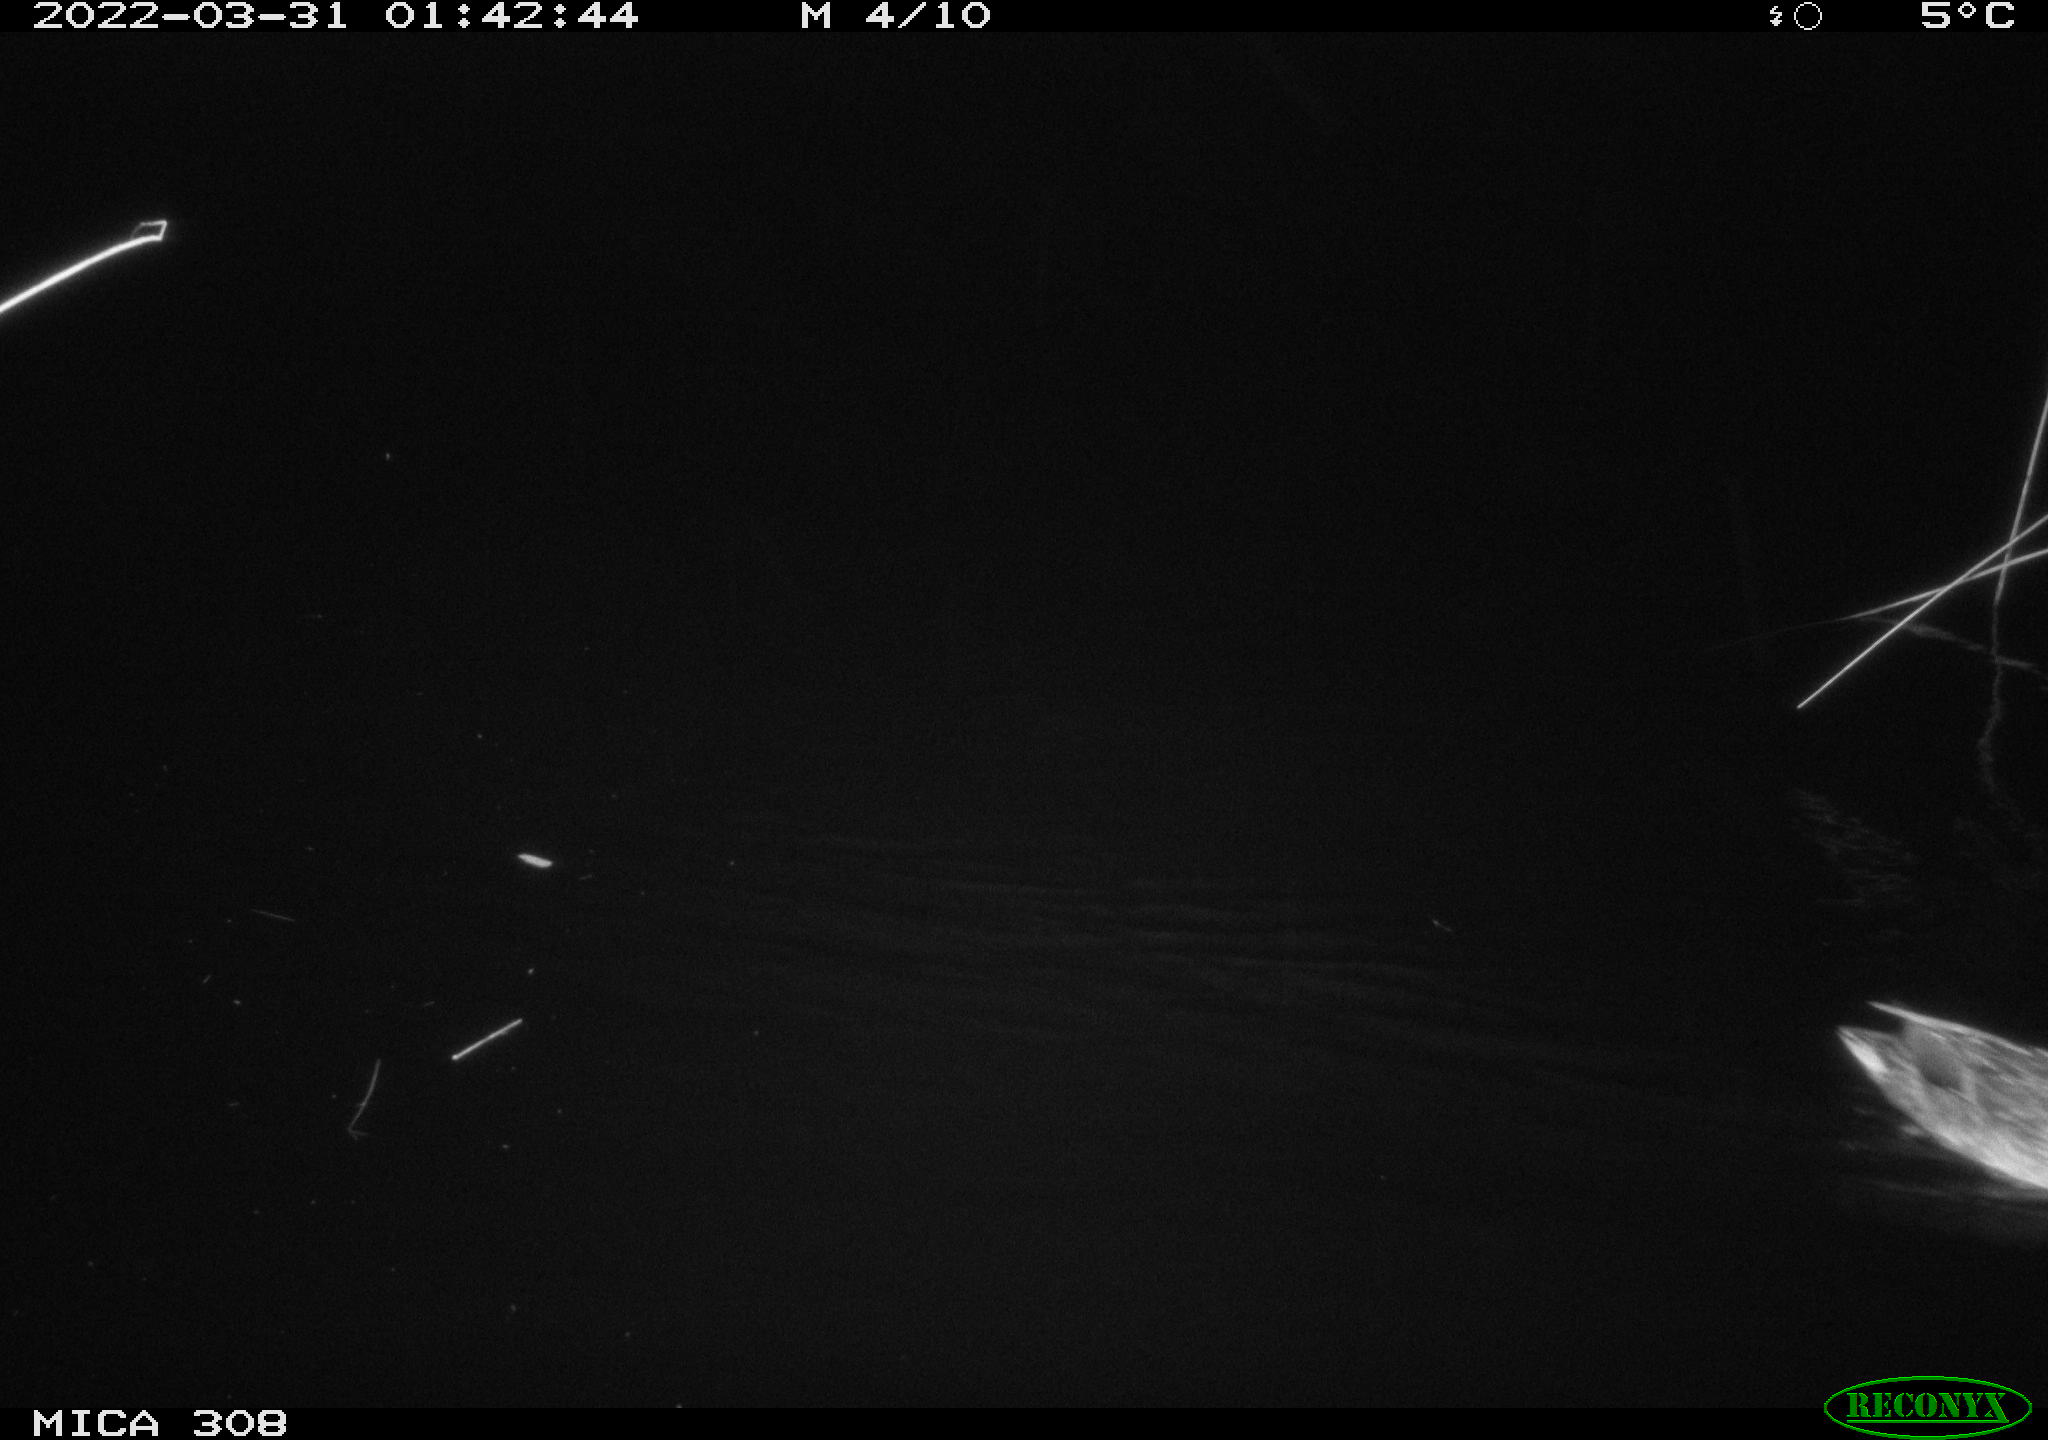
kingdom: Animalia
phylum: Chordata
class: Aves
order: Anseriformes
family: Anatidae
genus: Anas
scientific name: Anas platyrhynchos
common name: Mallard
